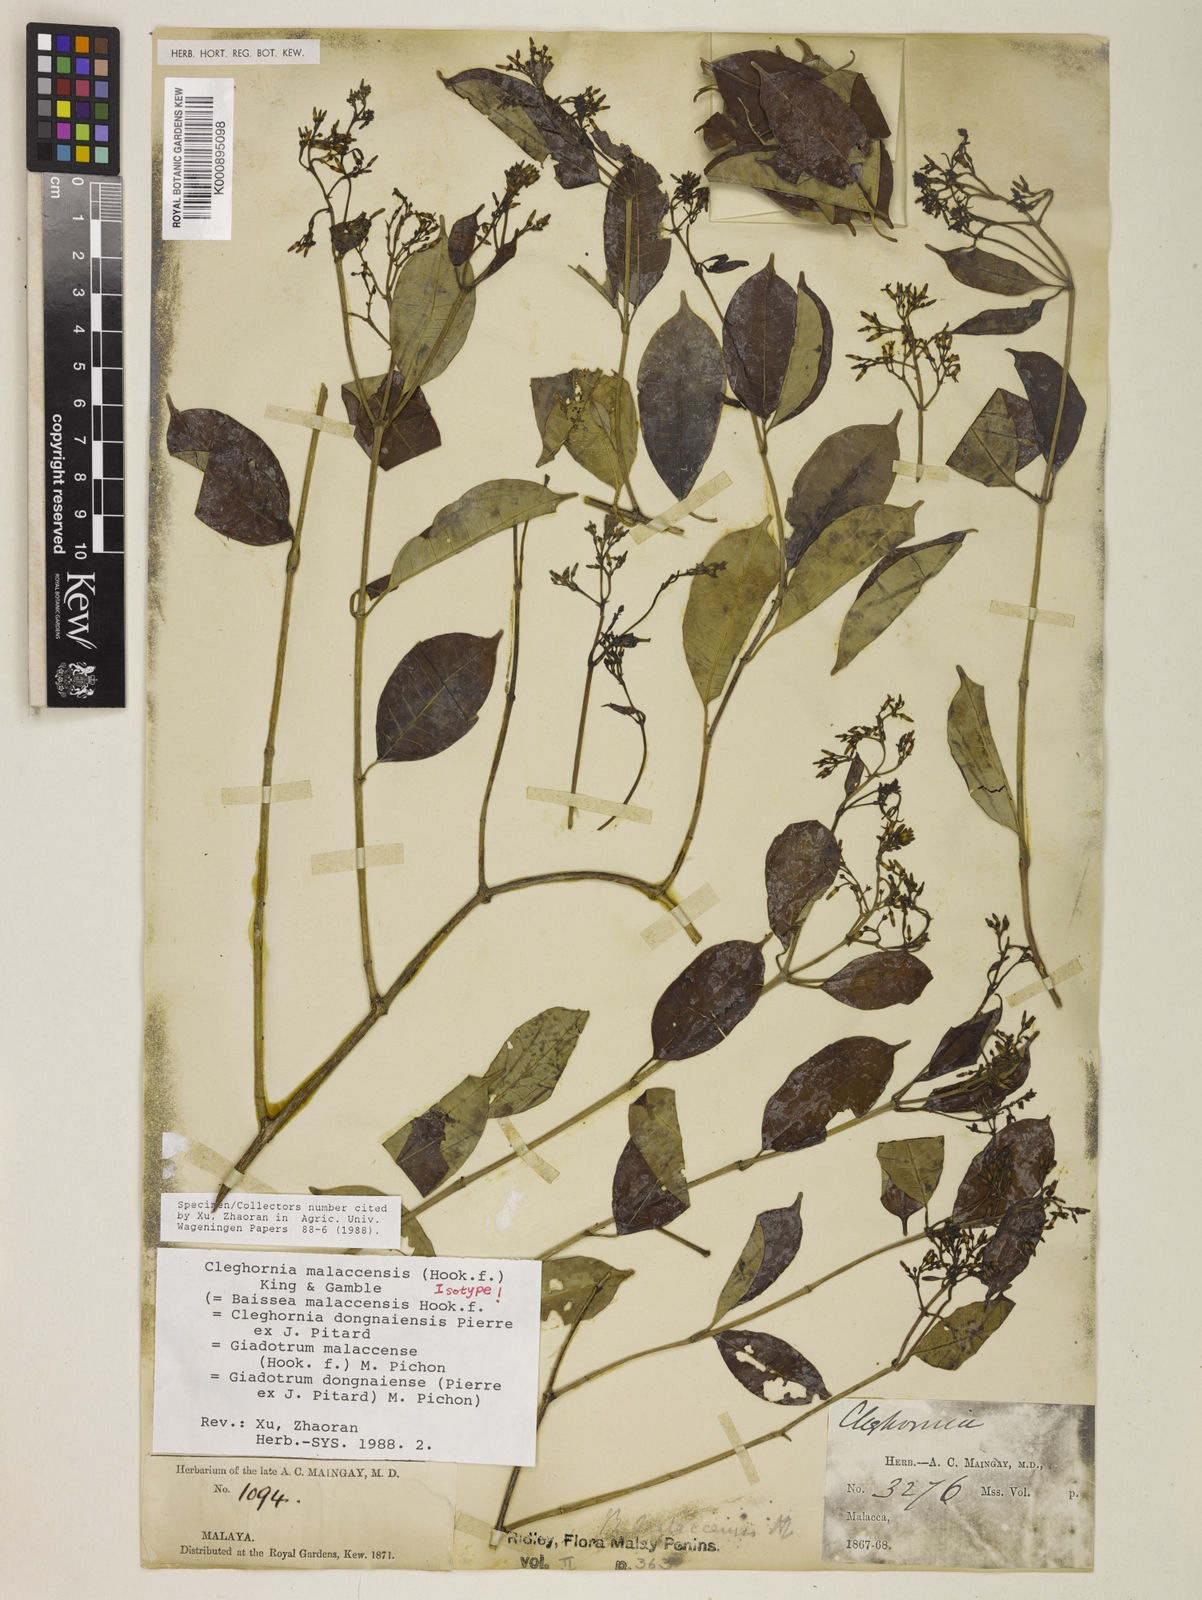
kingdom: Plantae
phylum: Tracheophyta
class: Magnoliopsida
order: Gentianales
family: Apocynaceae
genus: Cleghornia
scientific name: Cleghornia malaccensis
